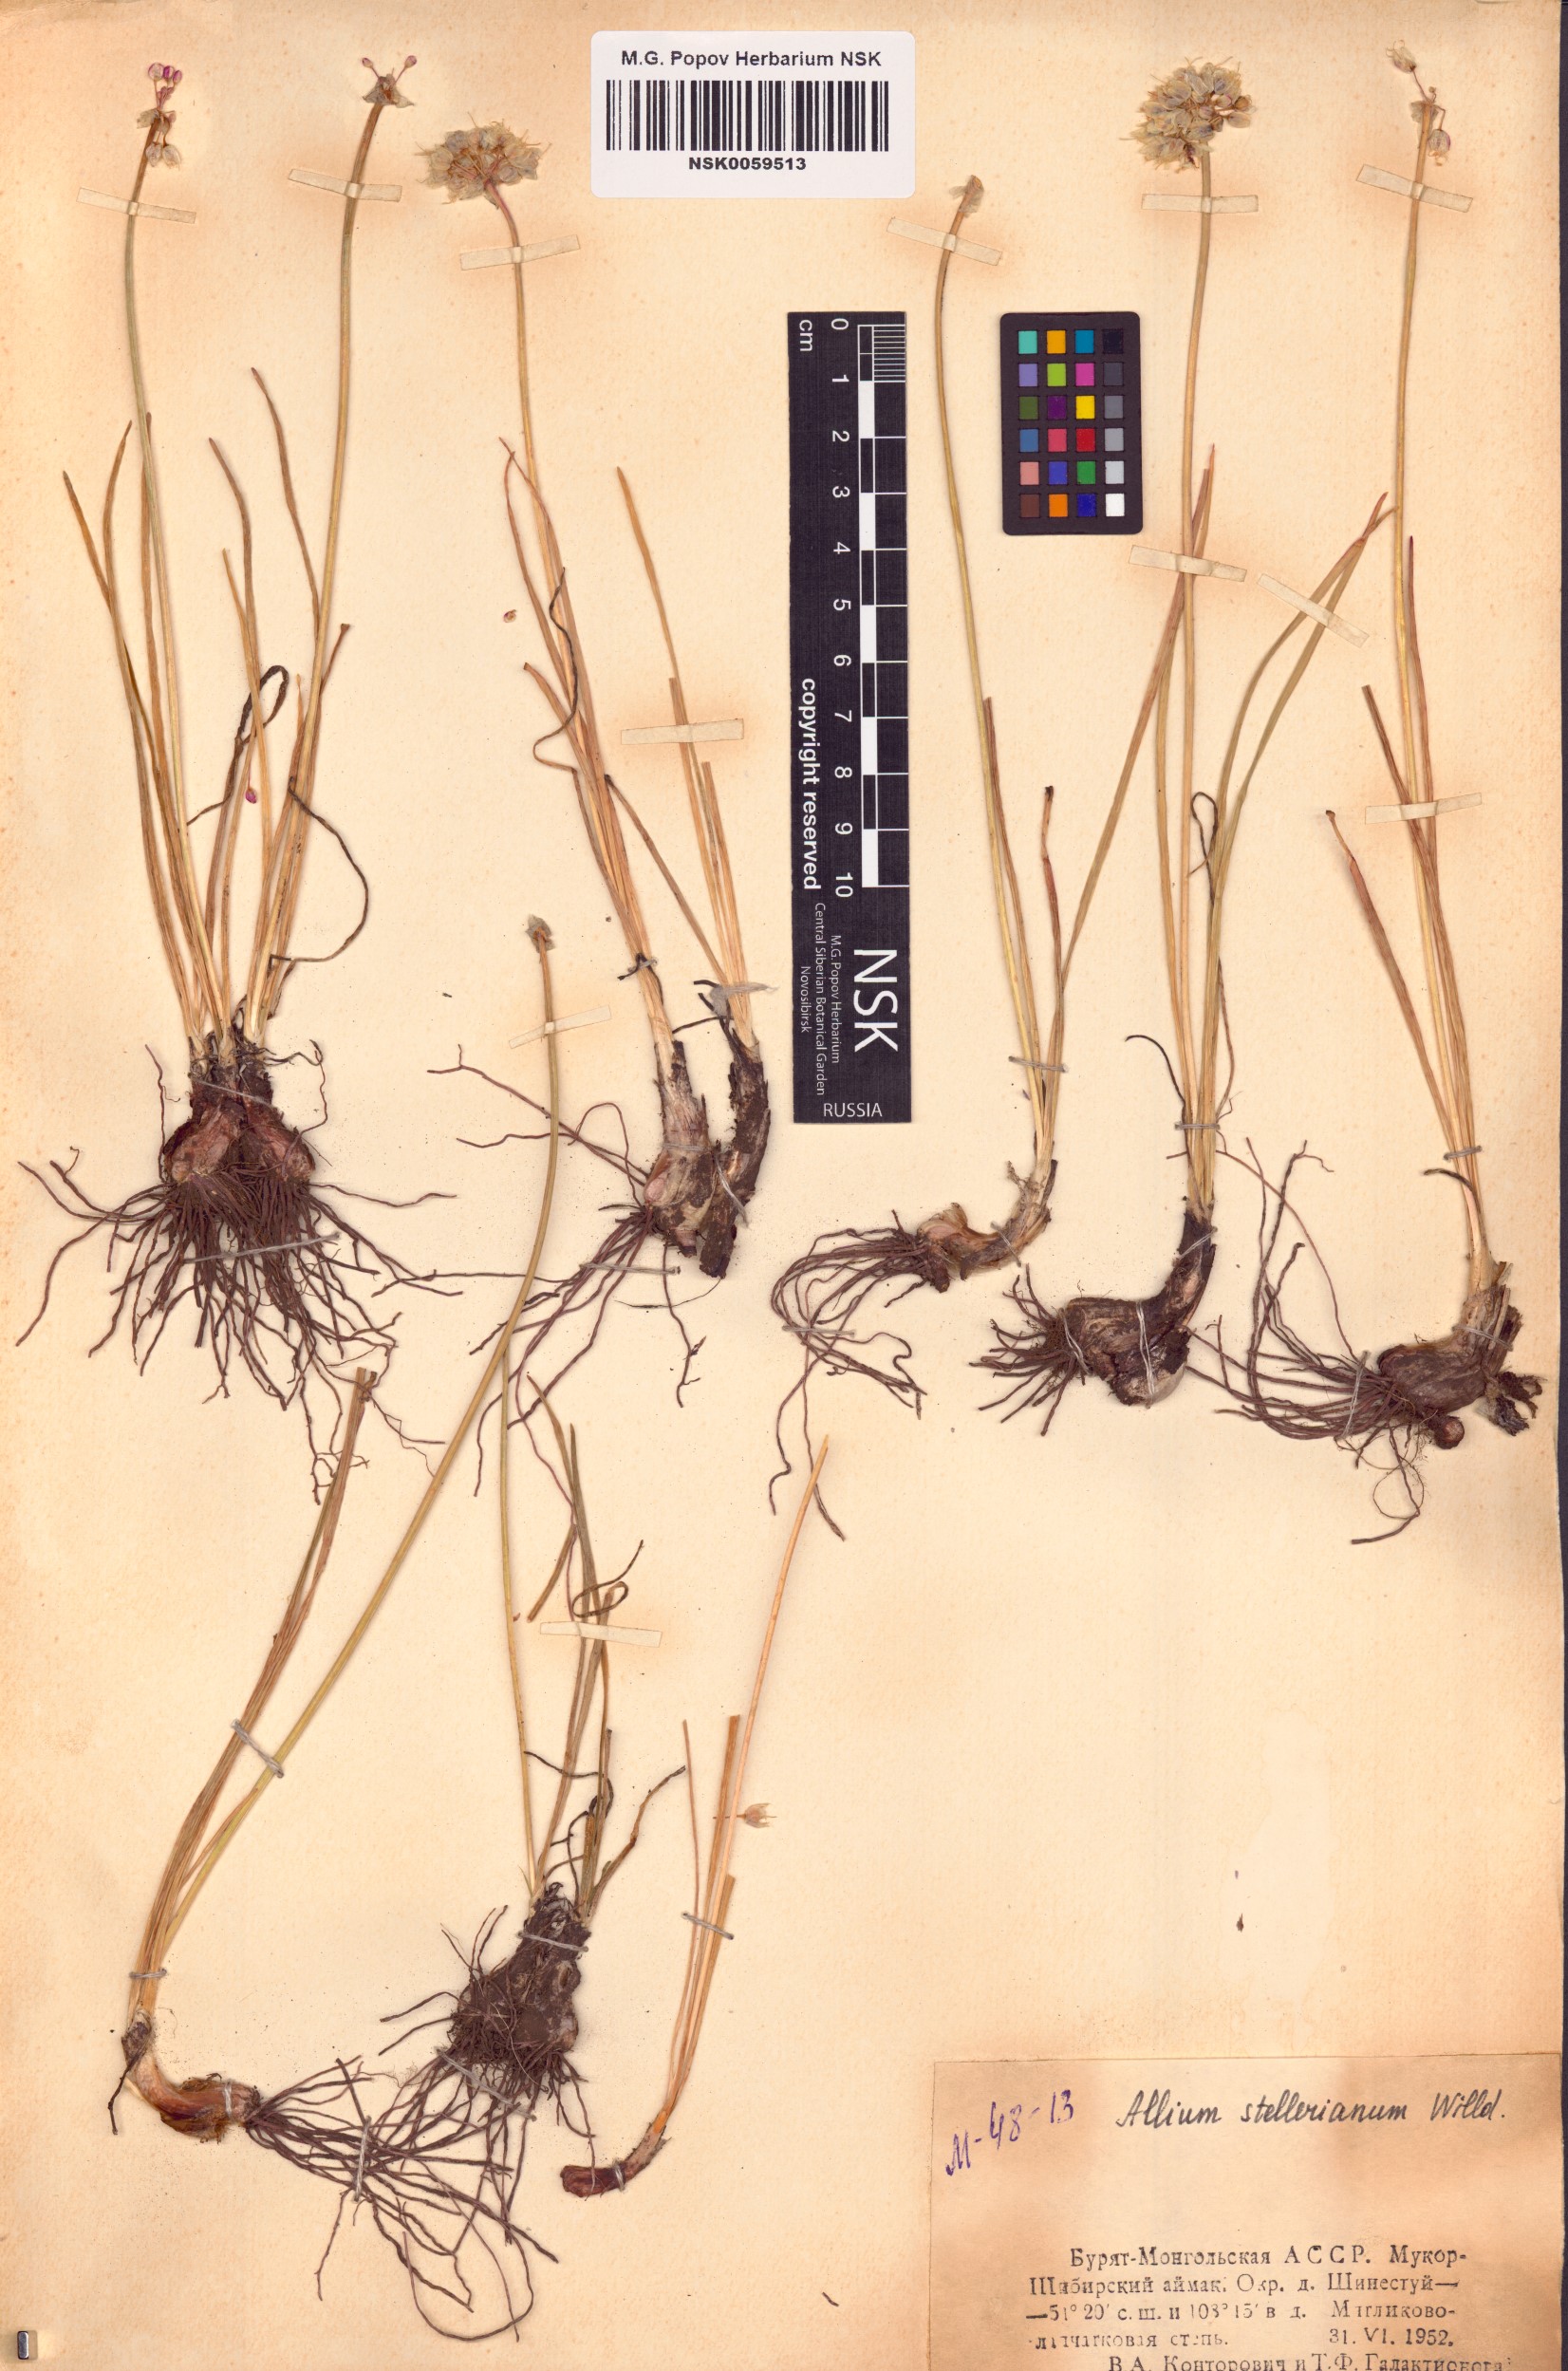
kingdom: Plantae
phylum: Tracheophyta
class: Liliopsida
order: Asparagales
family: Amaryllidaceae
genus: Allium
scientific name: Allium stellerianum
